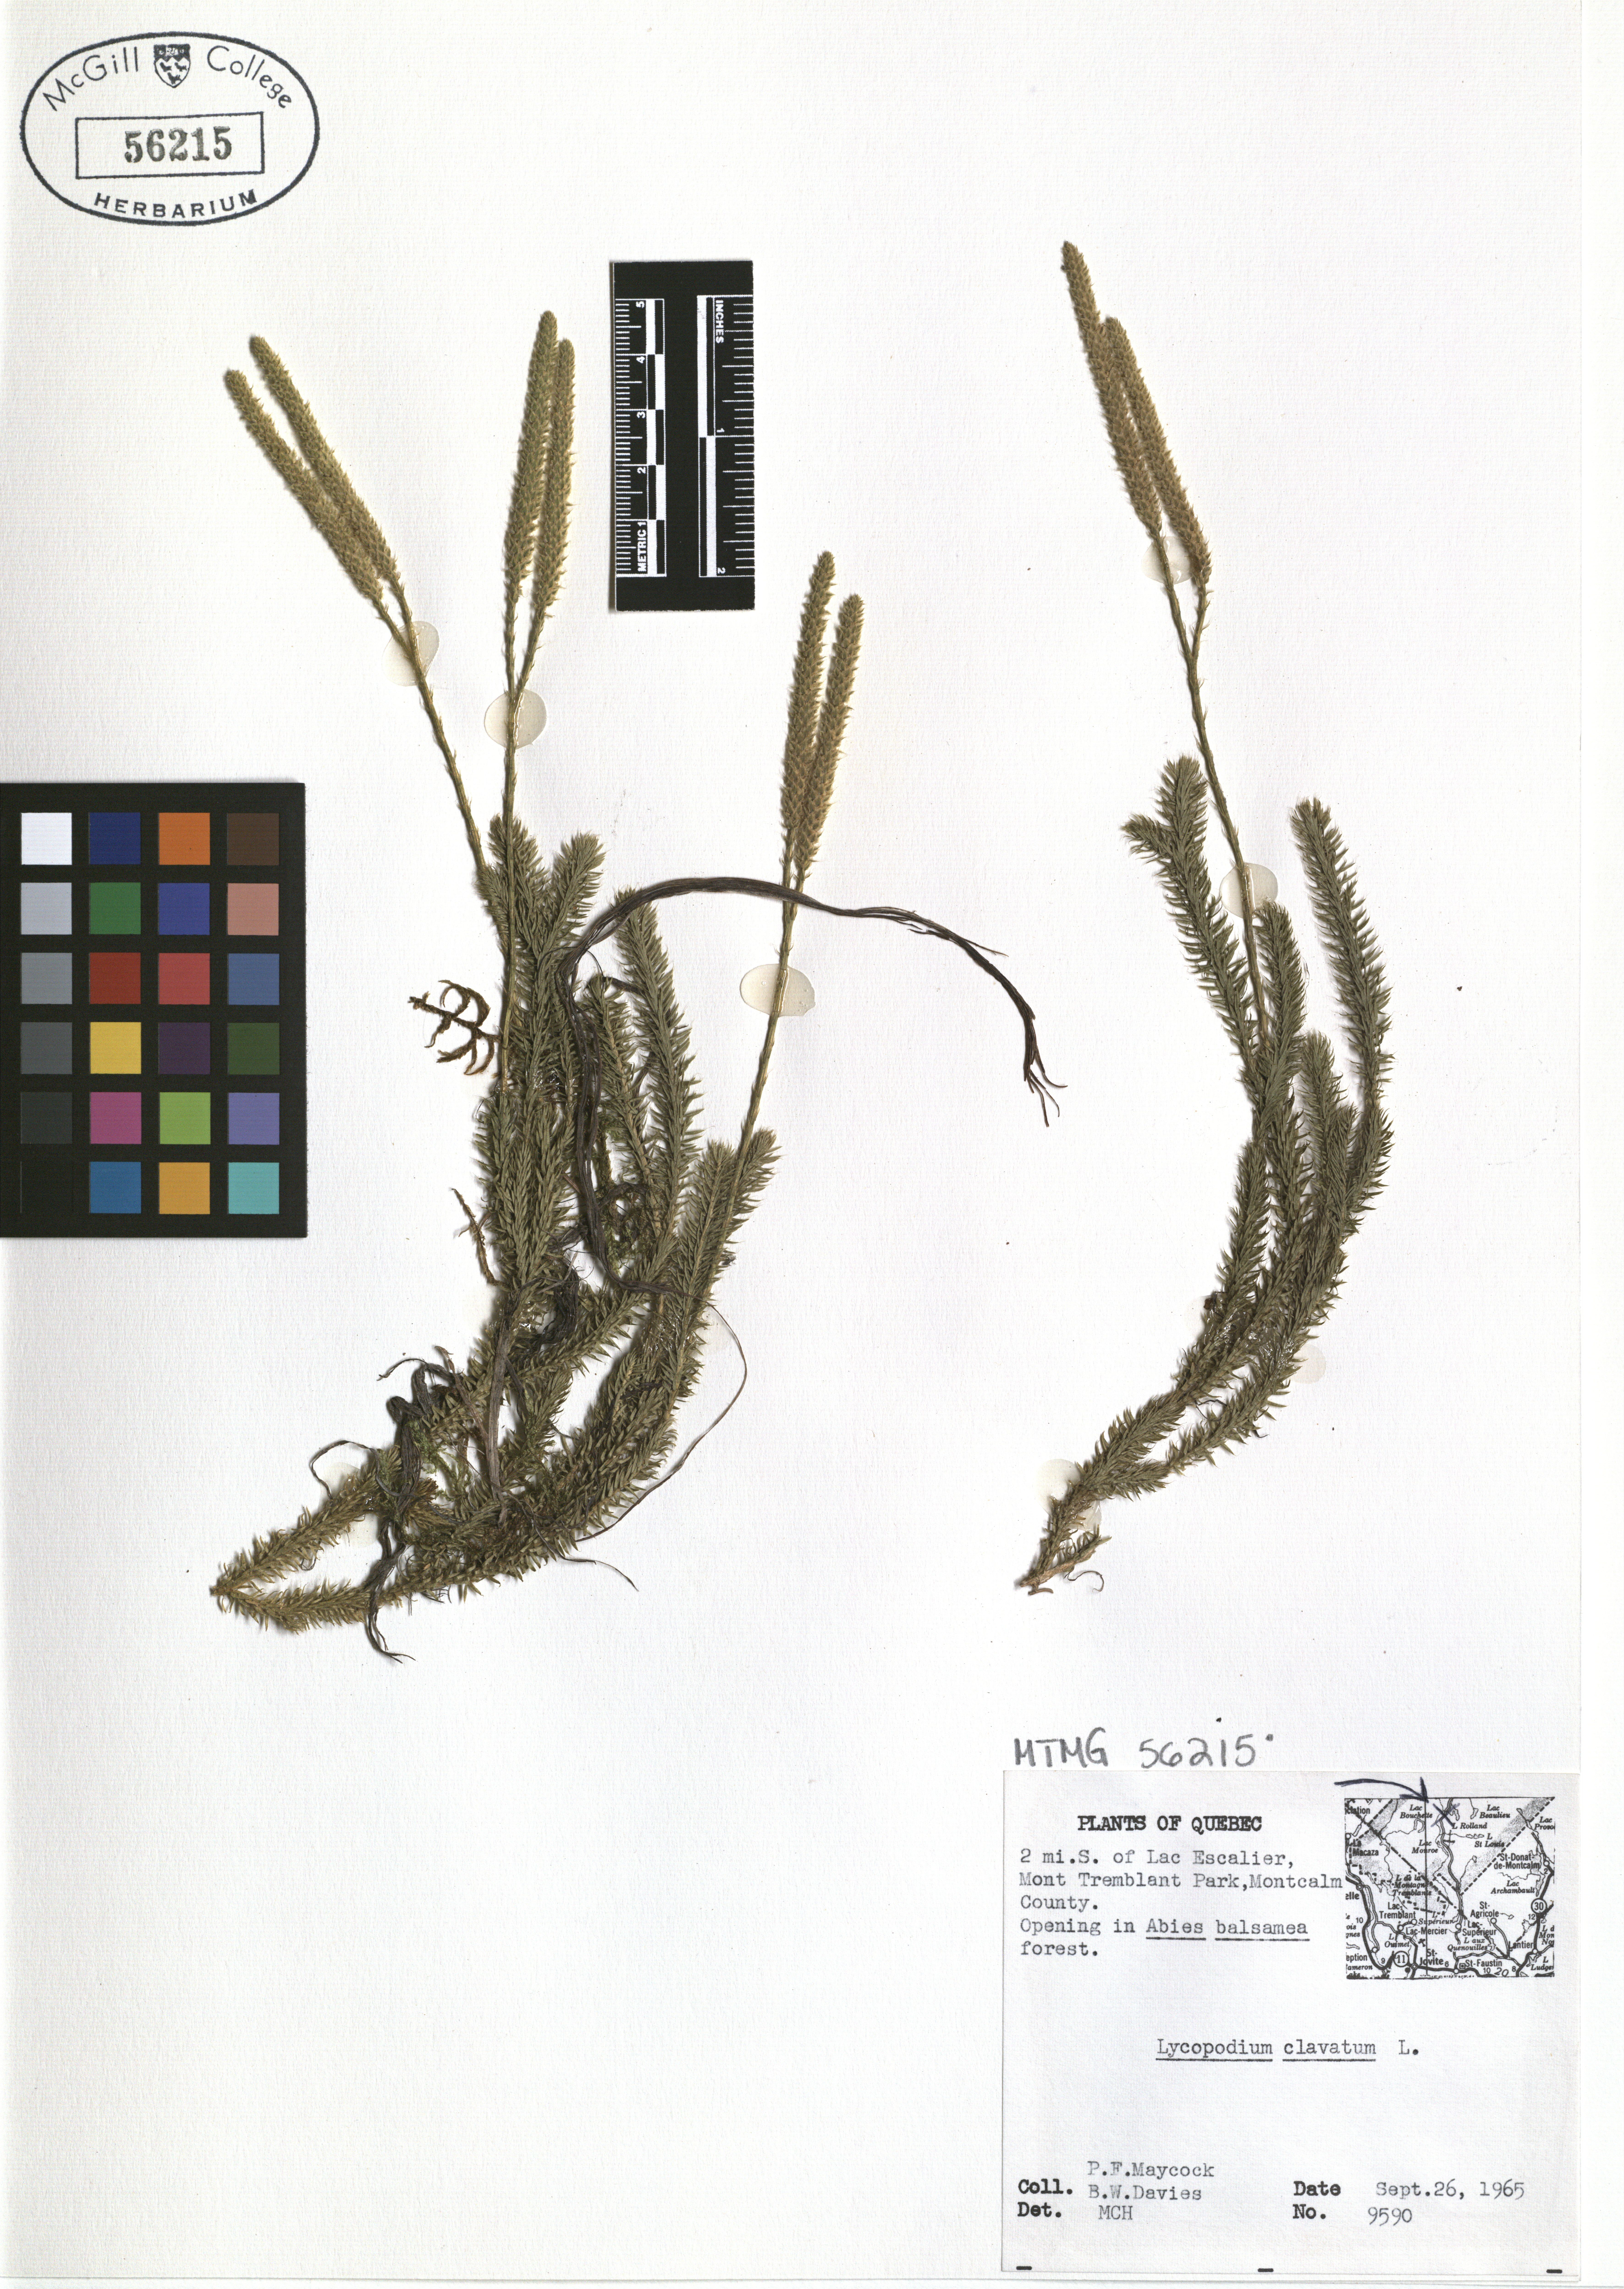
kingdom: Plantae
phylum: Tracheophyta
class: Lycopodiopsida
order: Lycopodiales
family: Lycopodiaceae
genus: Lycopodium
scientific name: Lycopodium clavatum
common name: Stag's-horn clubmoss
